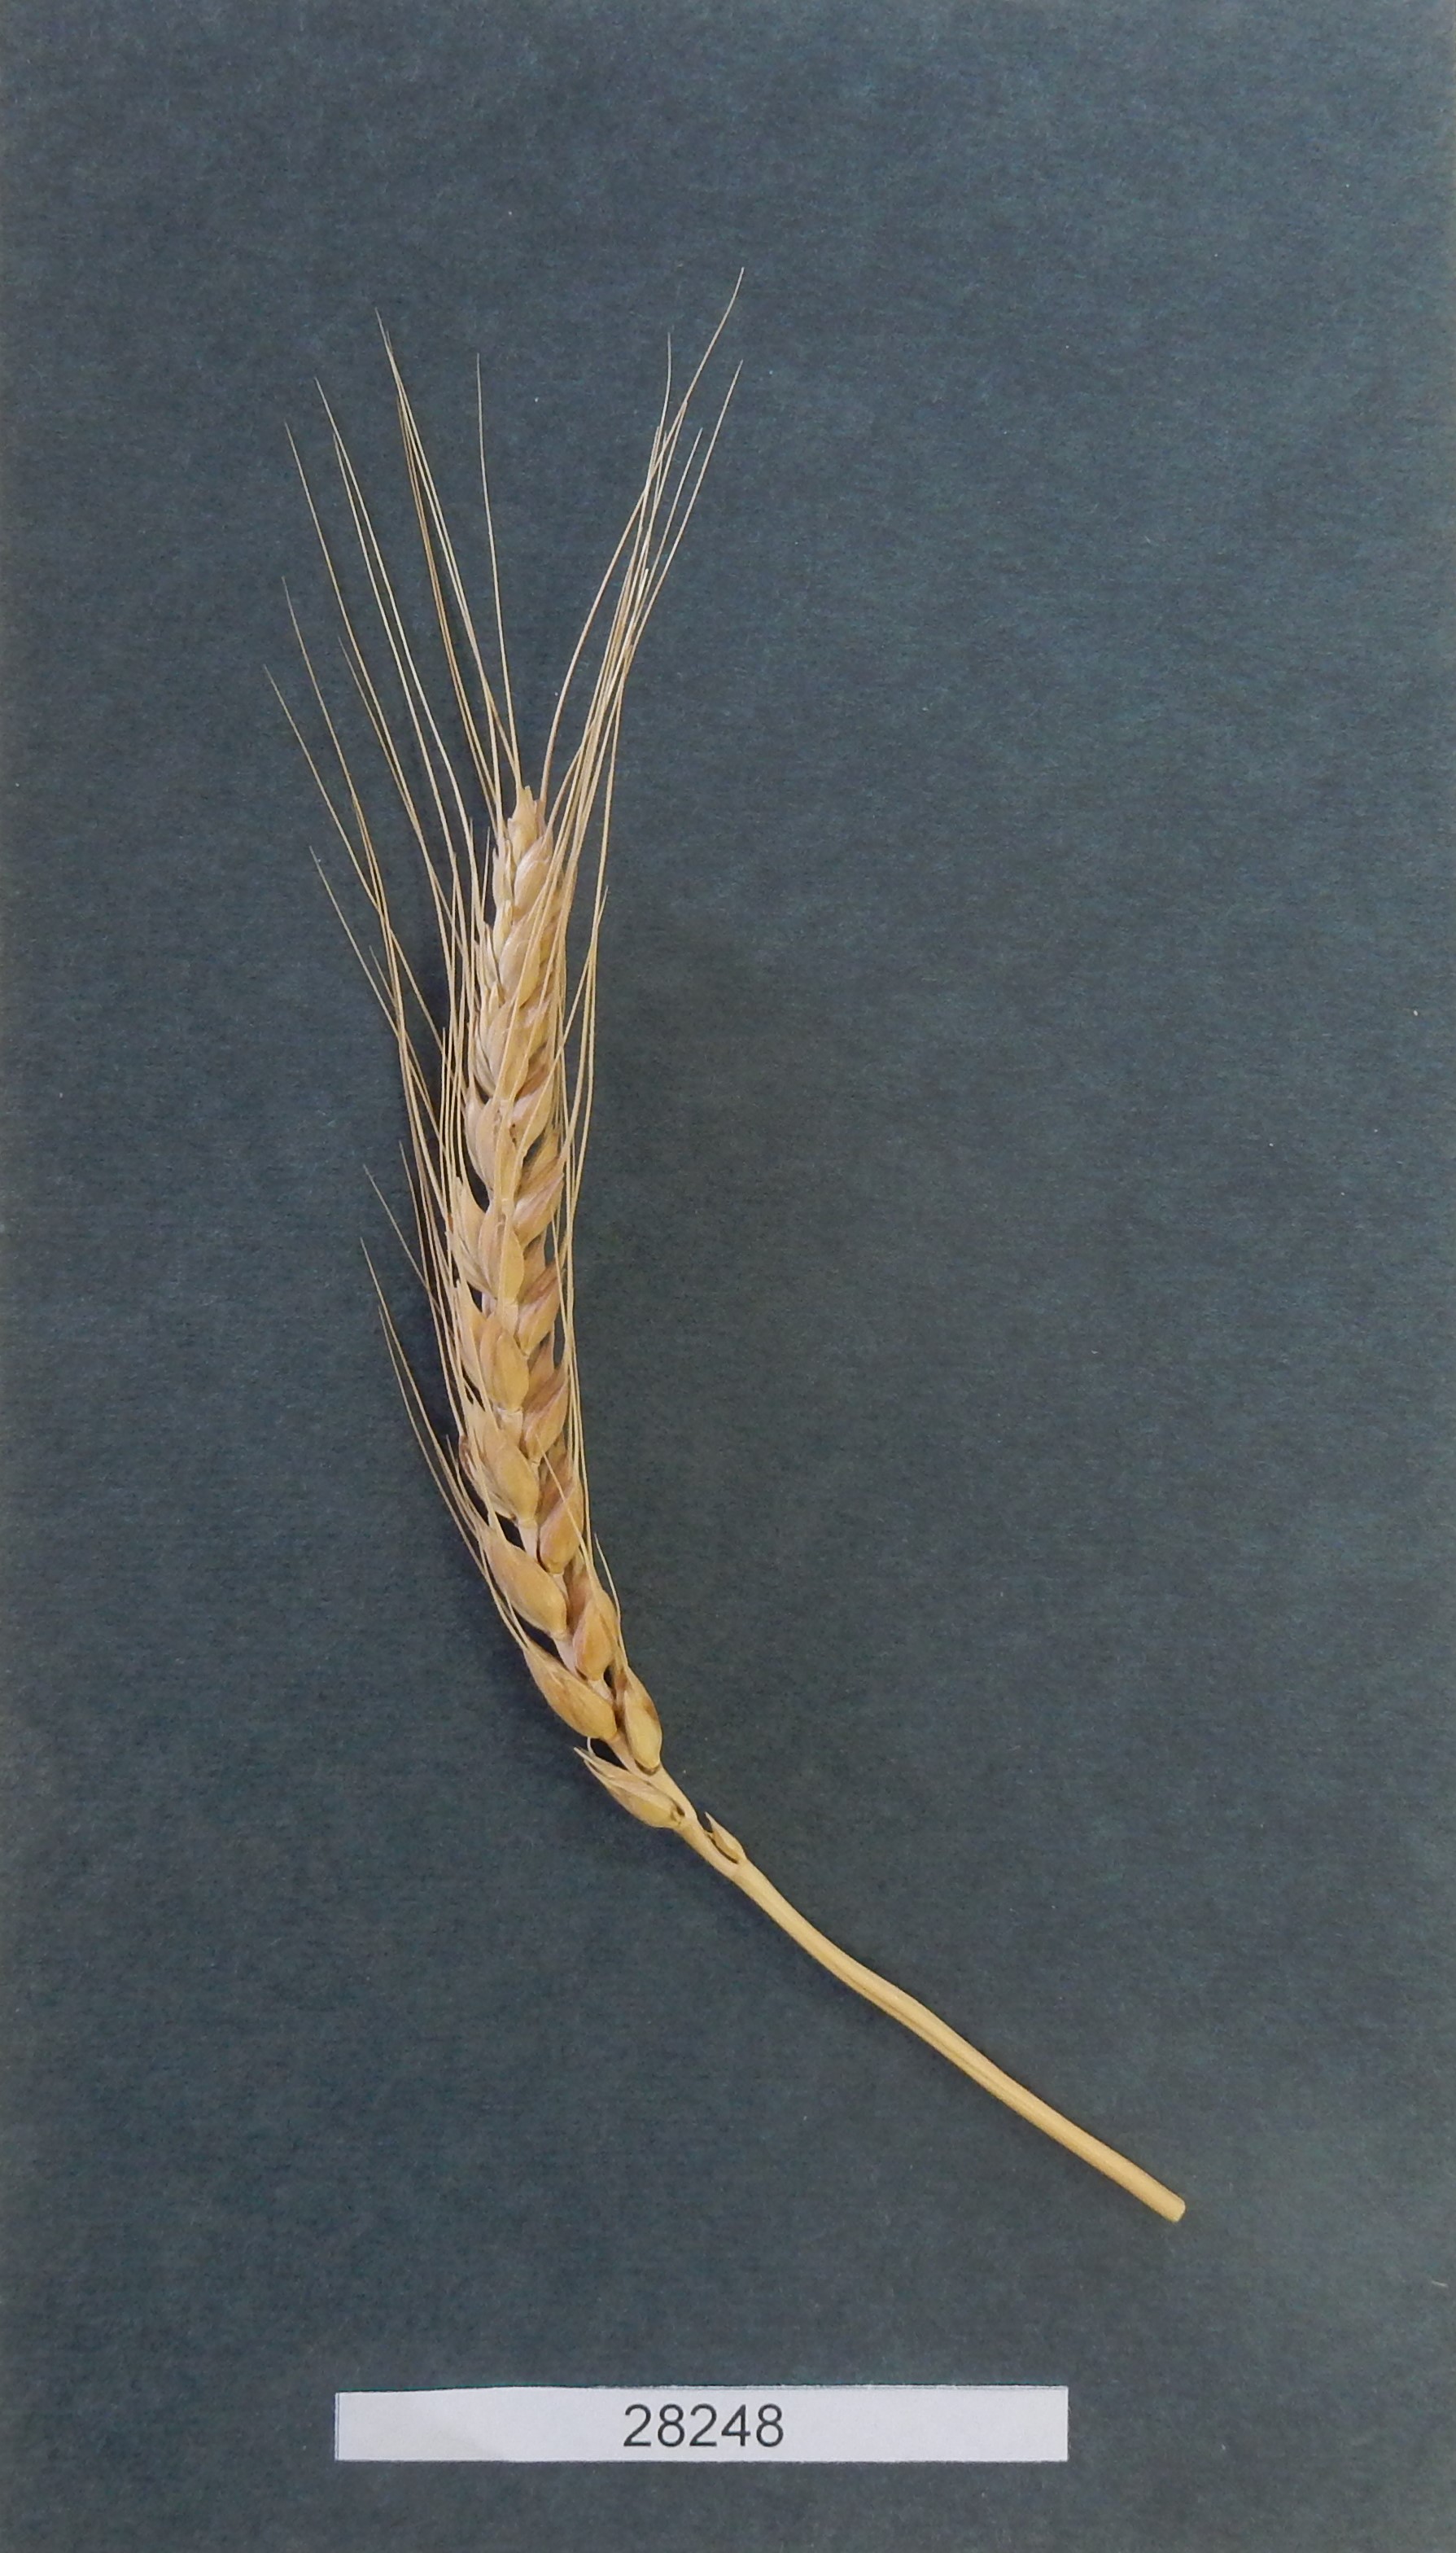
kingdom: Plantae
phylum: Tracheophyta
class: Liliopsida
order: Poales
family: Poaceae
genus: Triticum
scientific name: Triticum aestivum
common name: Common wheat
